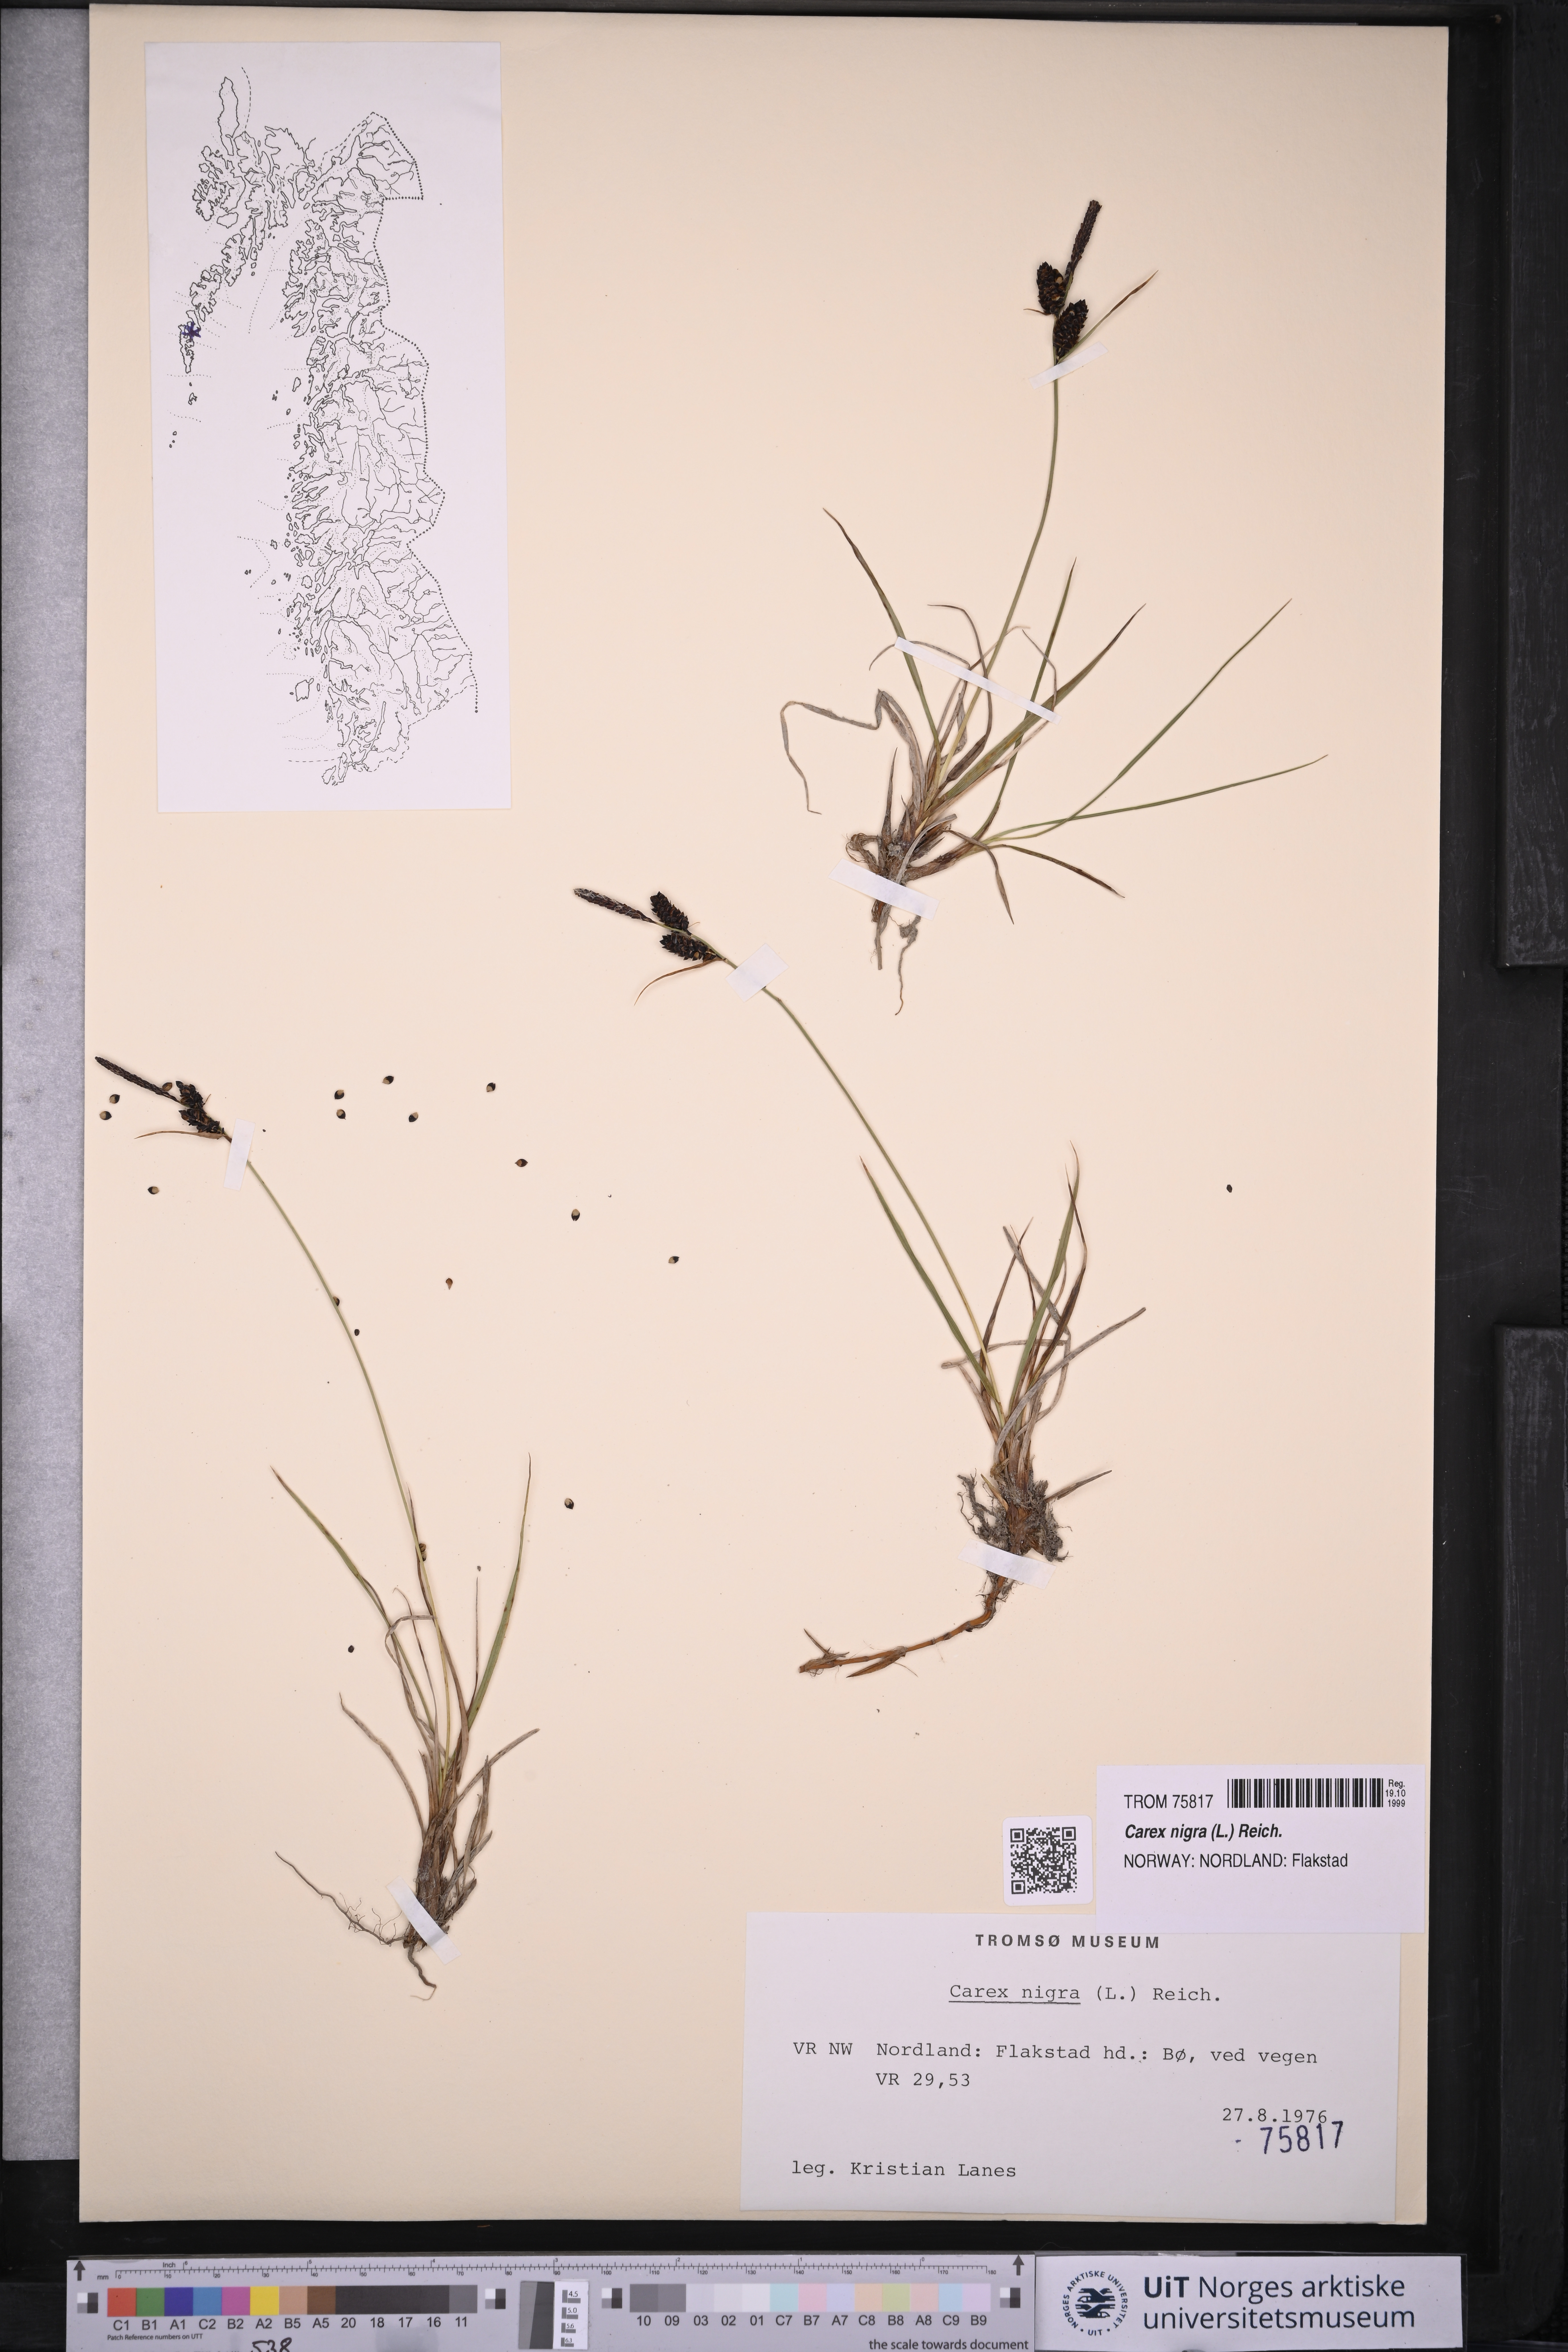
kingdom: Plantae
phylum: Tracheophyta
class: Liliopsida
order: Poales
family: Cyperaceae
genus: Carex
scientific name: Carex nigra
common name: Common sedge
